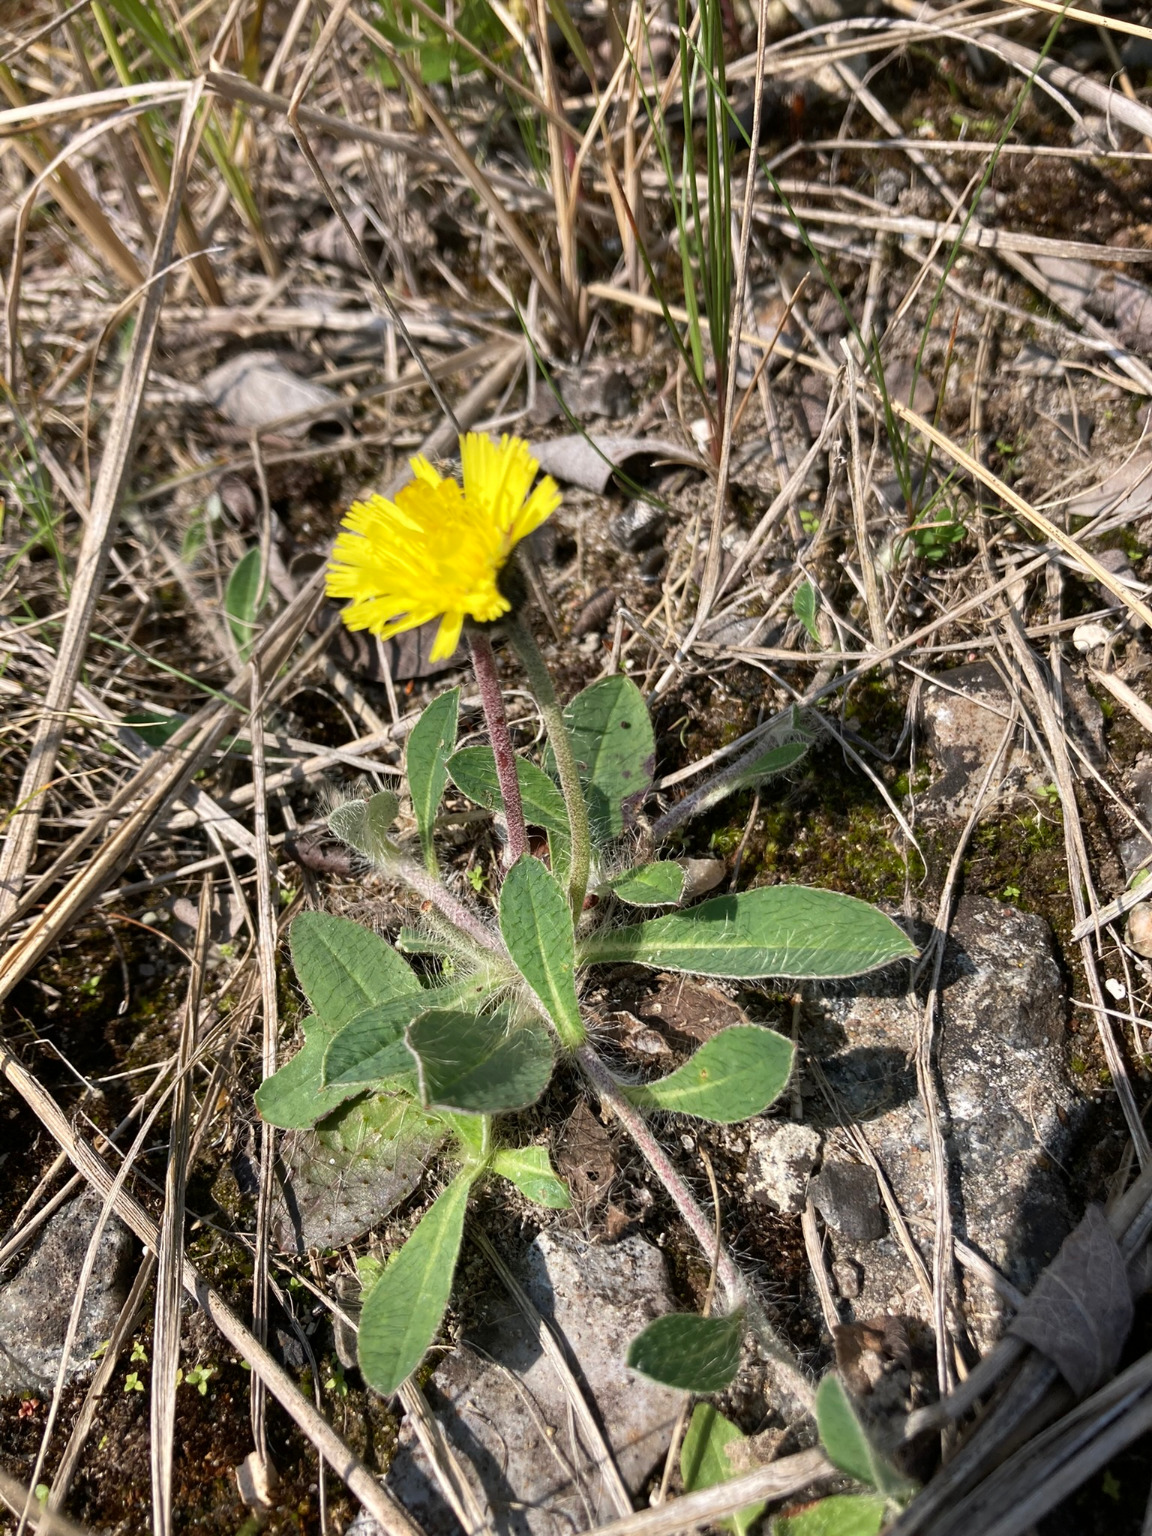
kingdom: Plantae
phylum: Tracheophyta
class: Magnoliopsida
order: Asterales
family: Asteraceae
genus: Pilosella
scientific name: Pilosella officinarum
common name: Håret høgeurt
